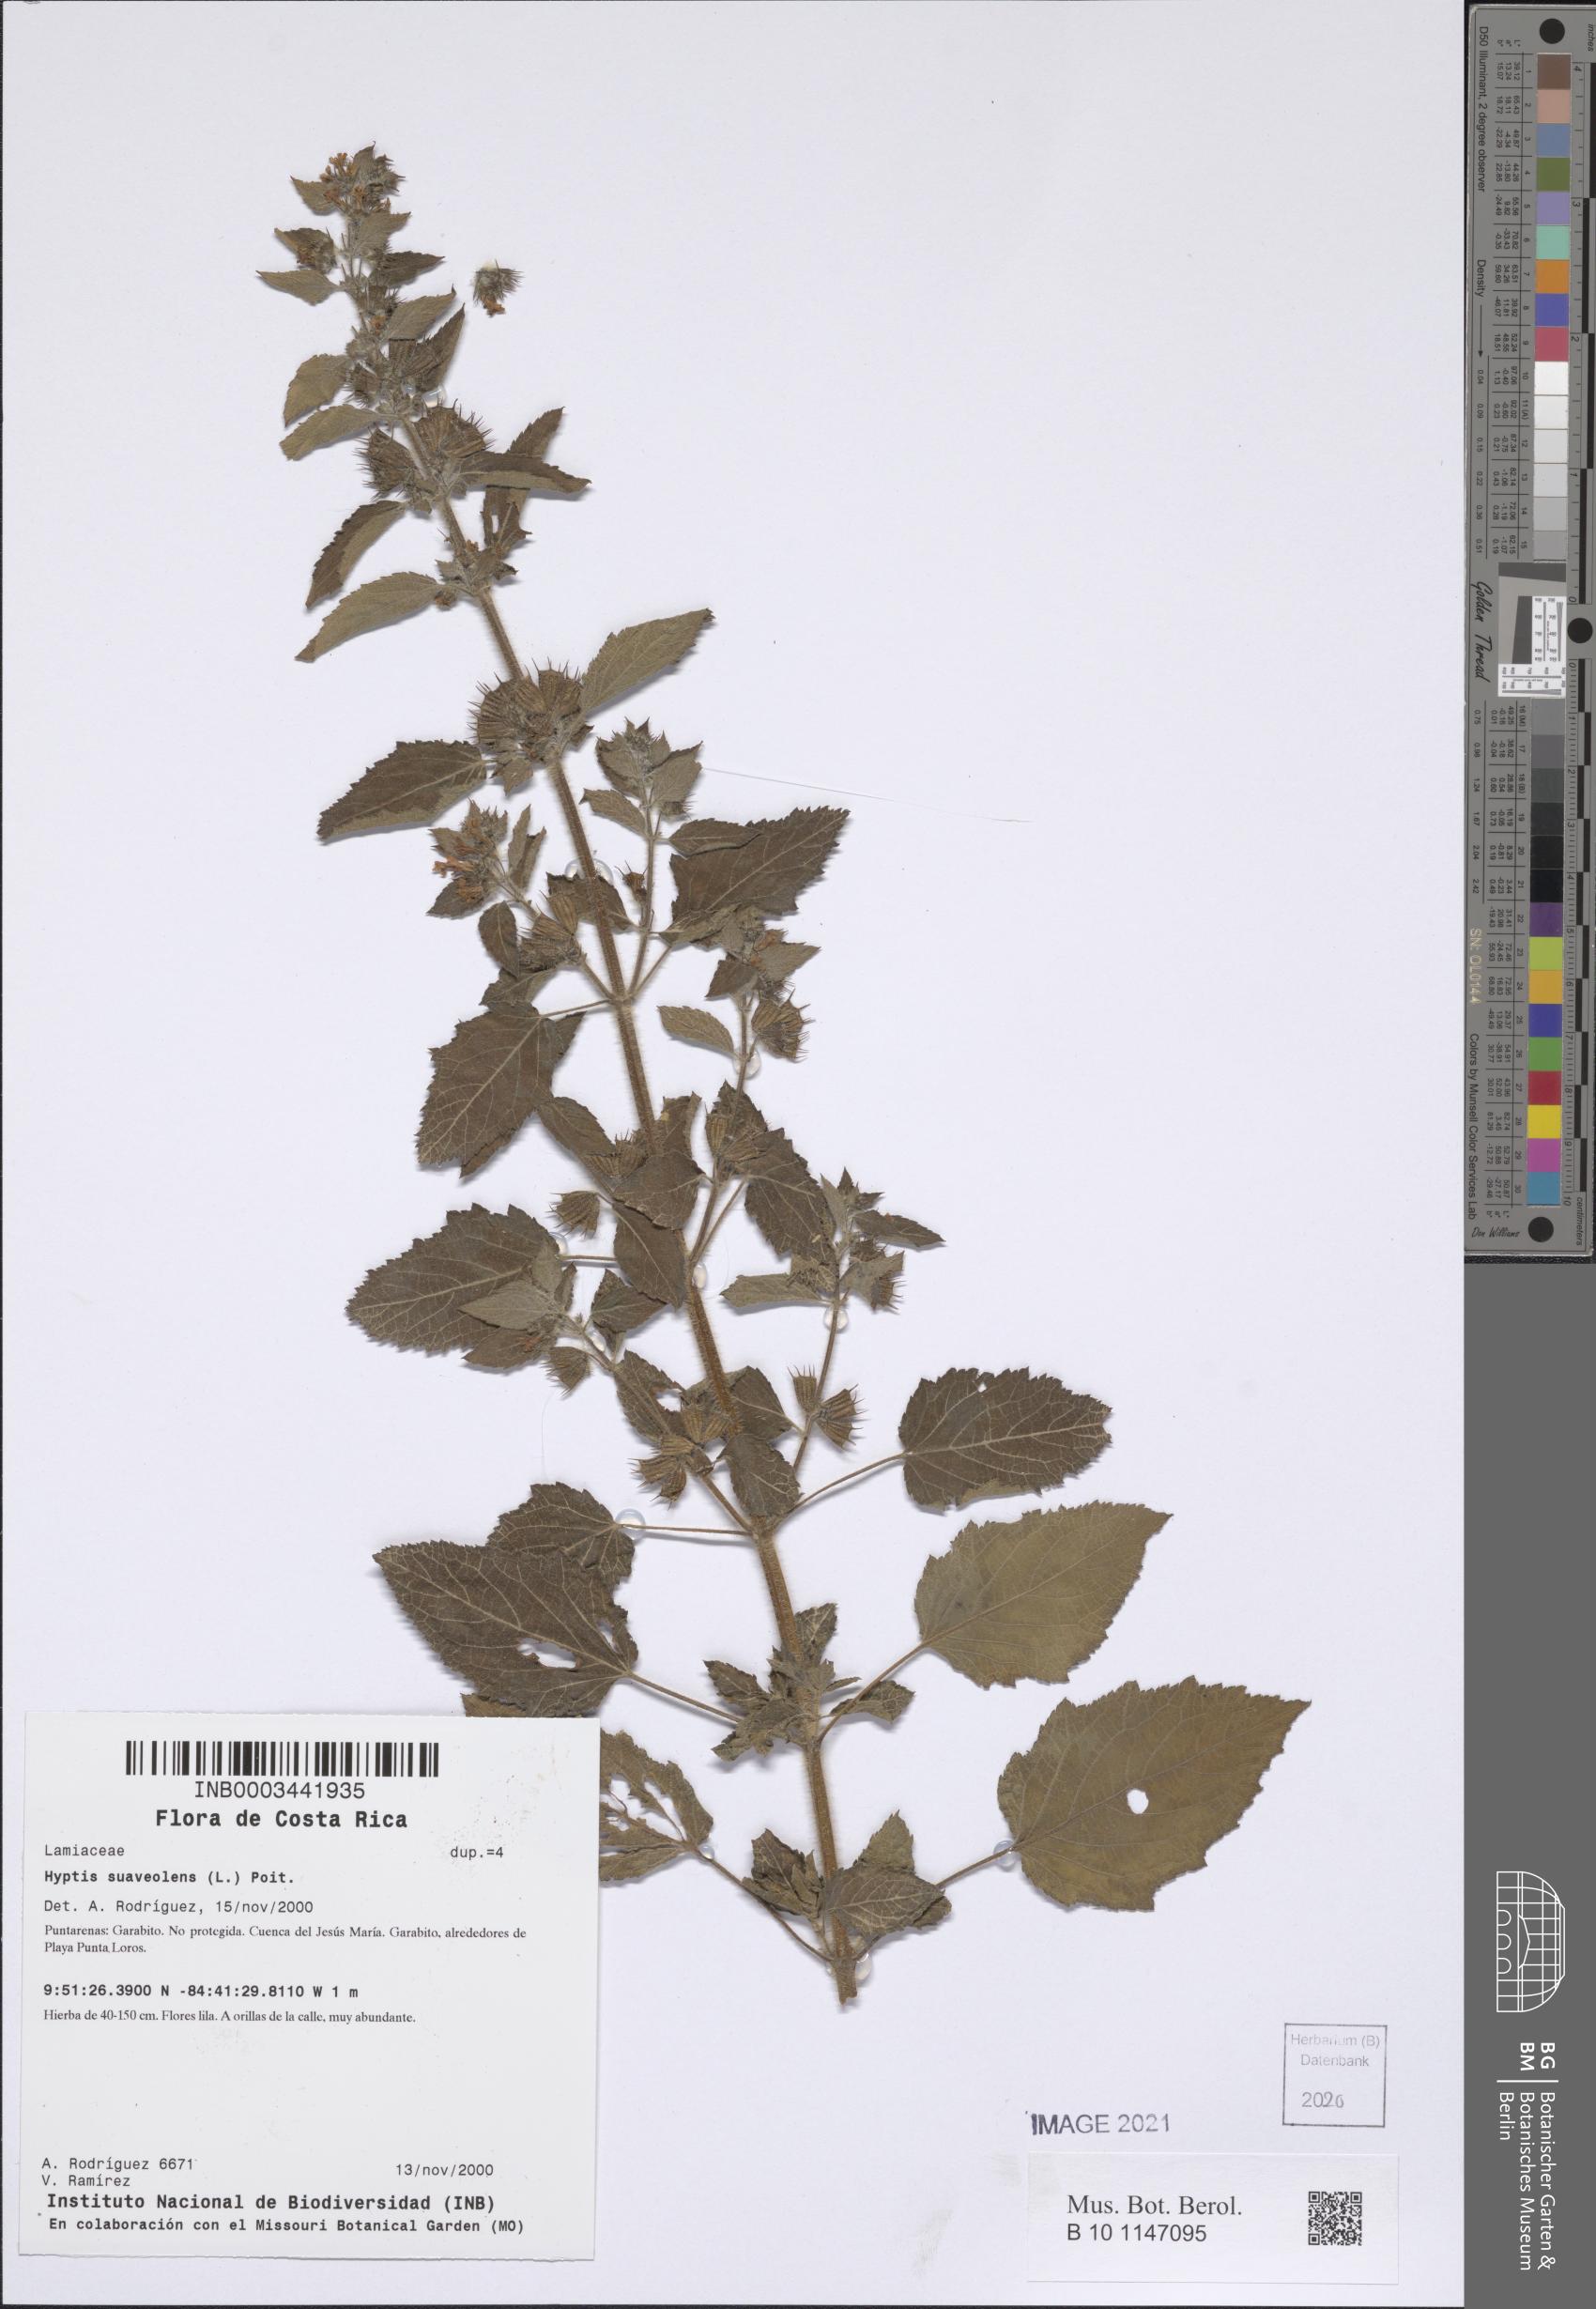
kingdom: Plantae
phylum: Tracheophyta
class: Magnoliopsida
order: Lamiales
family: Lamiaceae
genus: Mesosphaerum
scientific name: Mesosphaerum suaveolens
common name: Pignut
